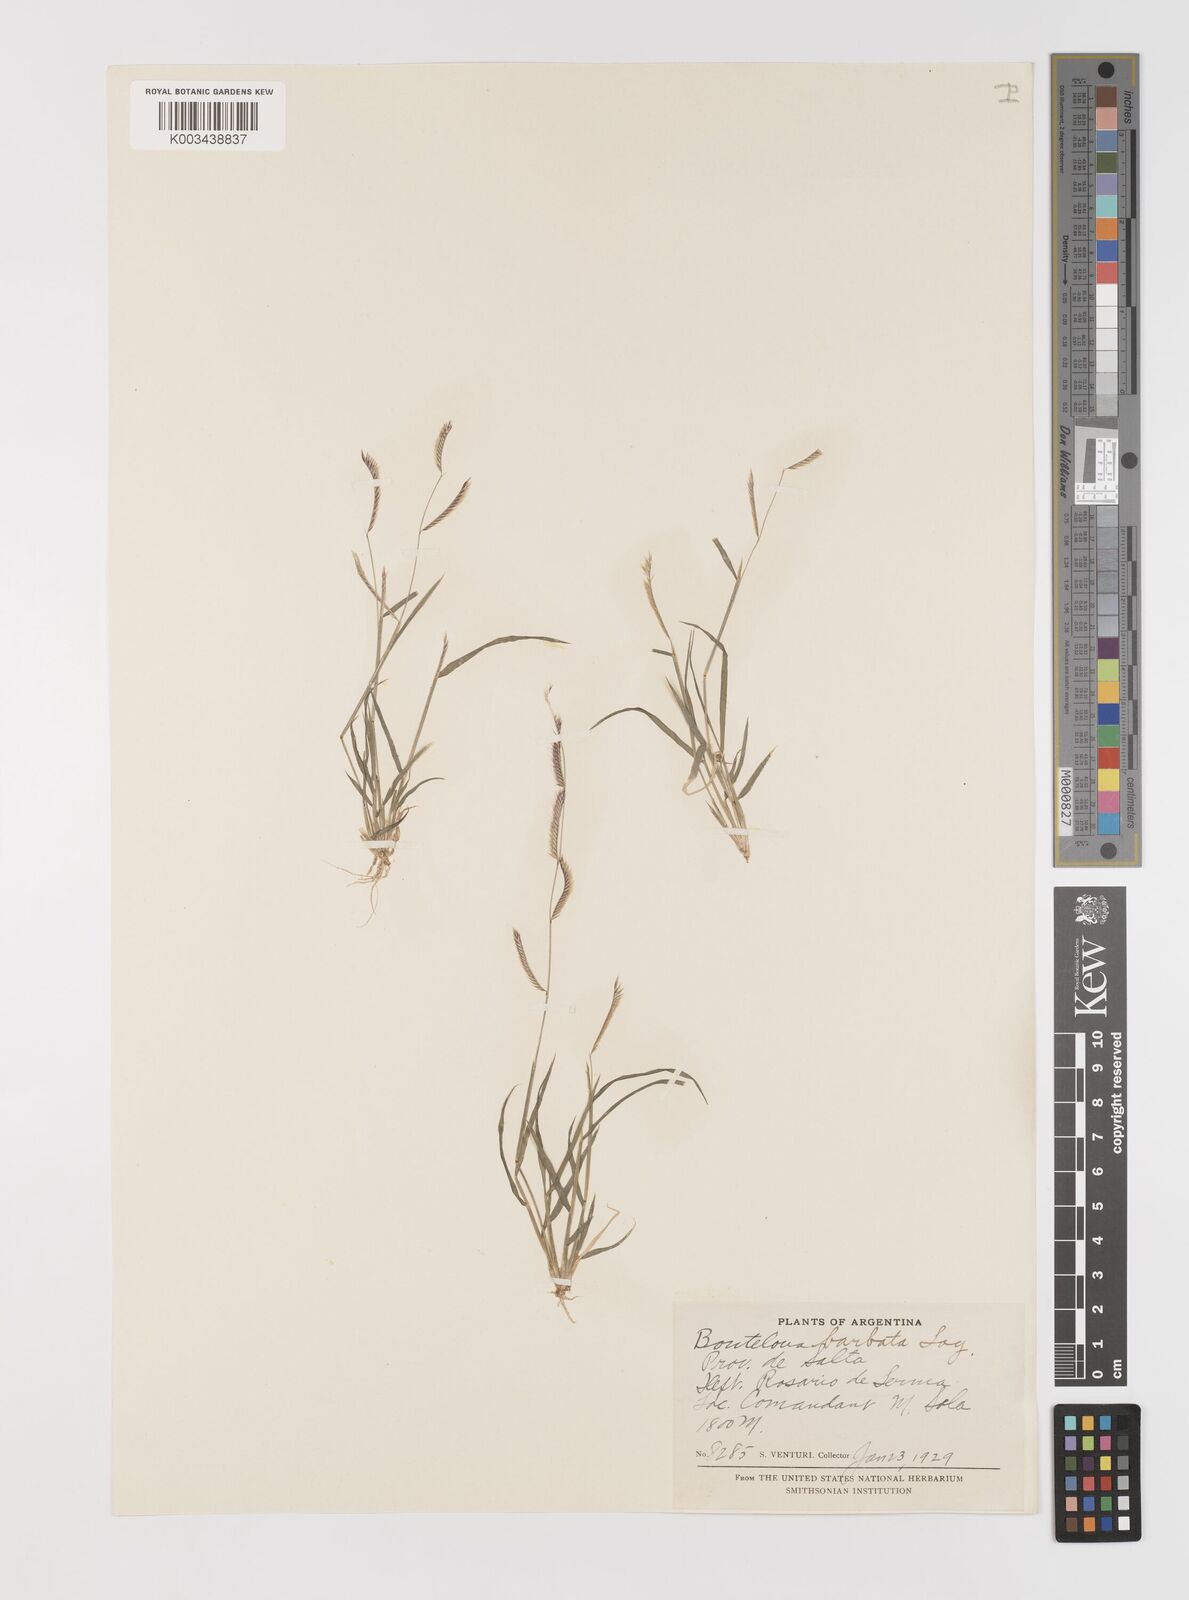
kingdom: Plantae
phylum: Tracheophyta
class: Liliopsida
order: Poales
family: Poaceae
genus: Bouteloua
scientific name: Bouteloua barbata
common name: Six-weeks grama
